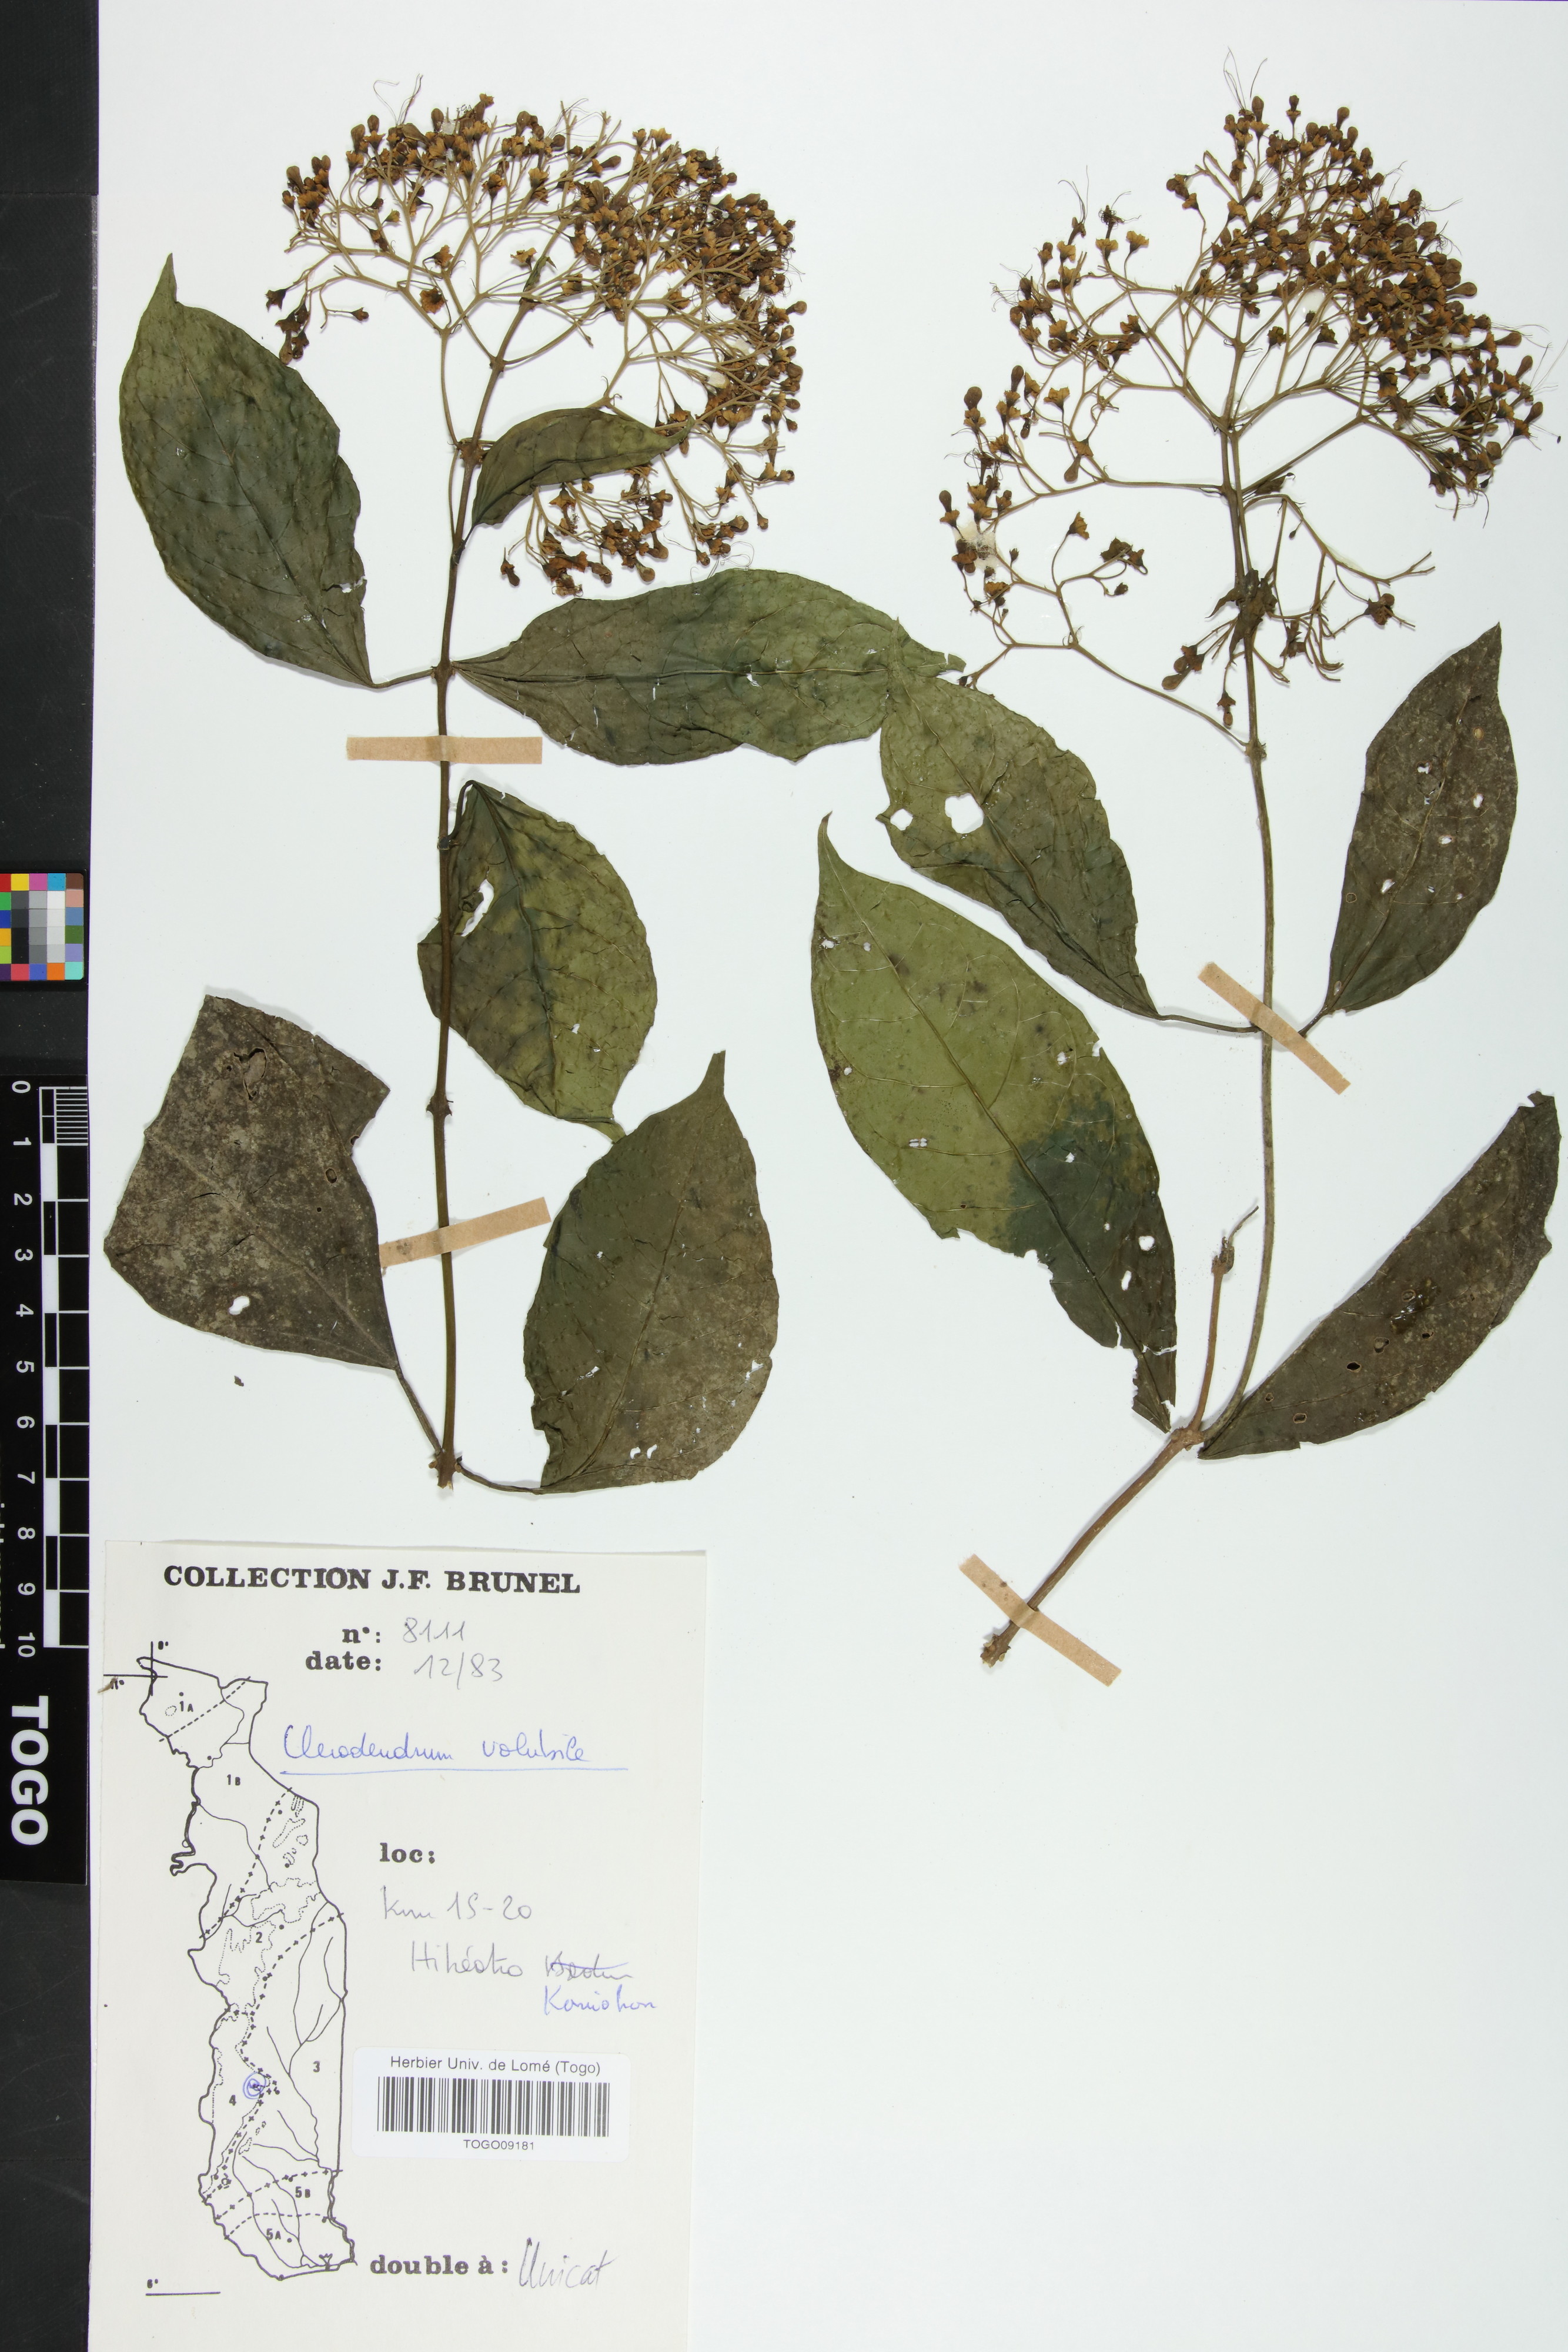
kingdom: Plantae
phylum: Tracheophyta
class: Magnoliopsida
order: Lamiales
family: Lamiaceae
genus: Clerodendrum
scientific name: Clerodendrum volubile
